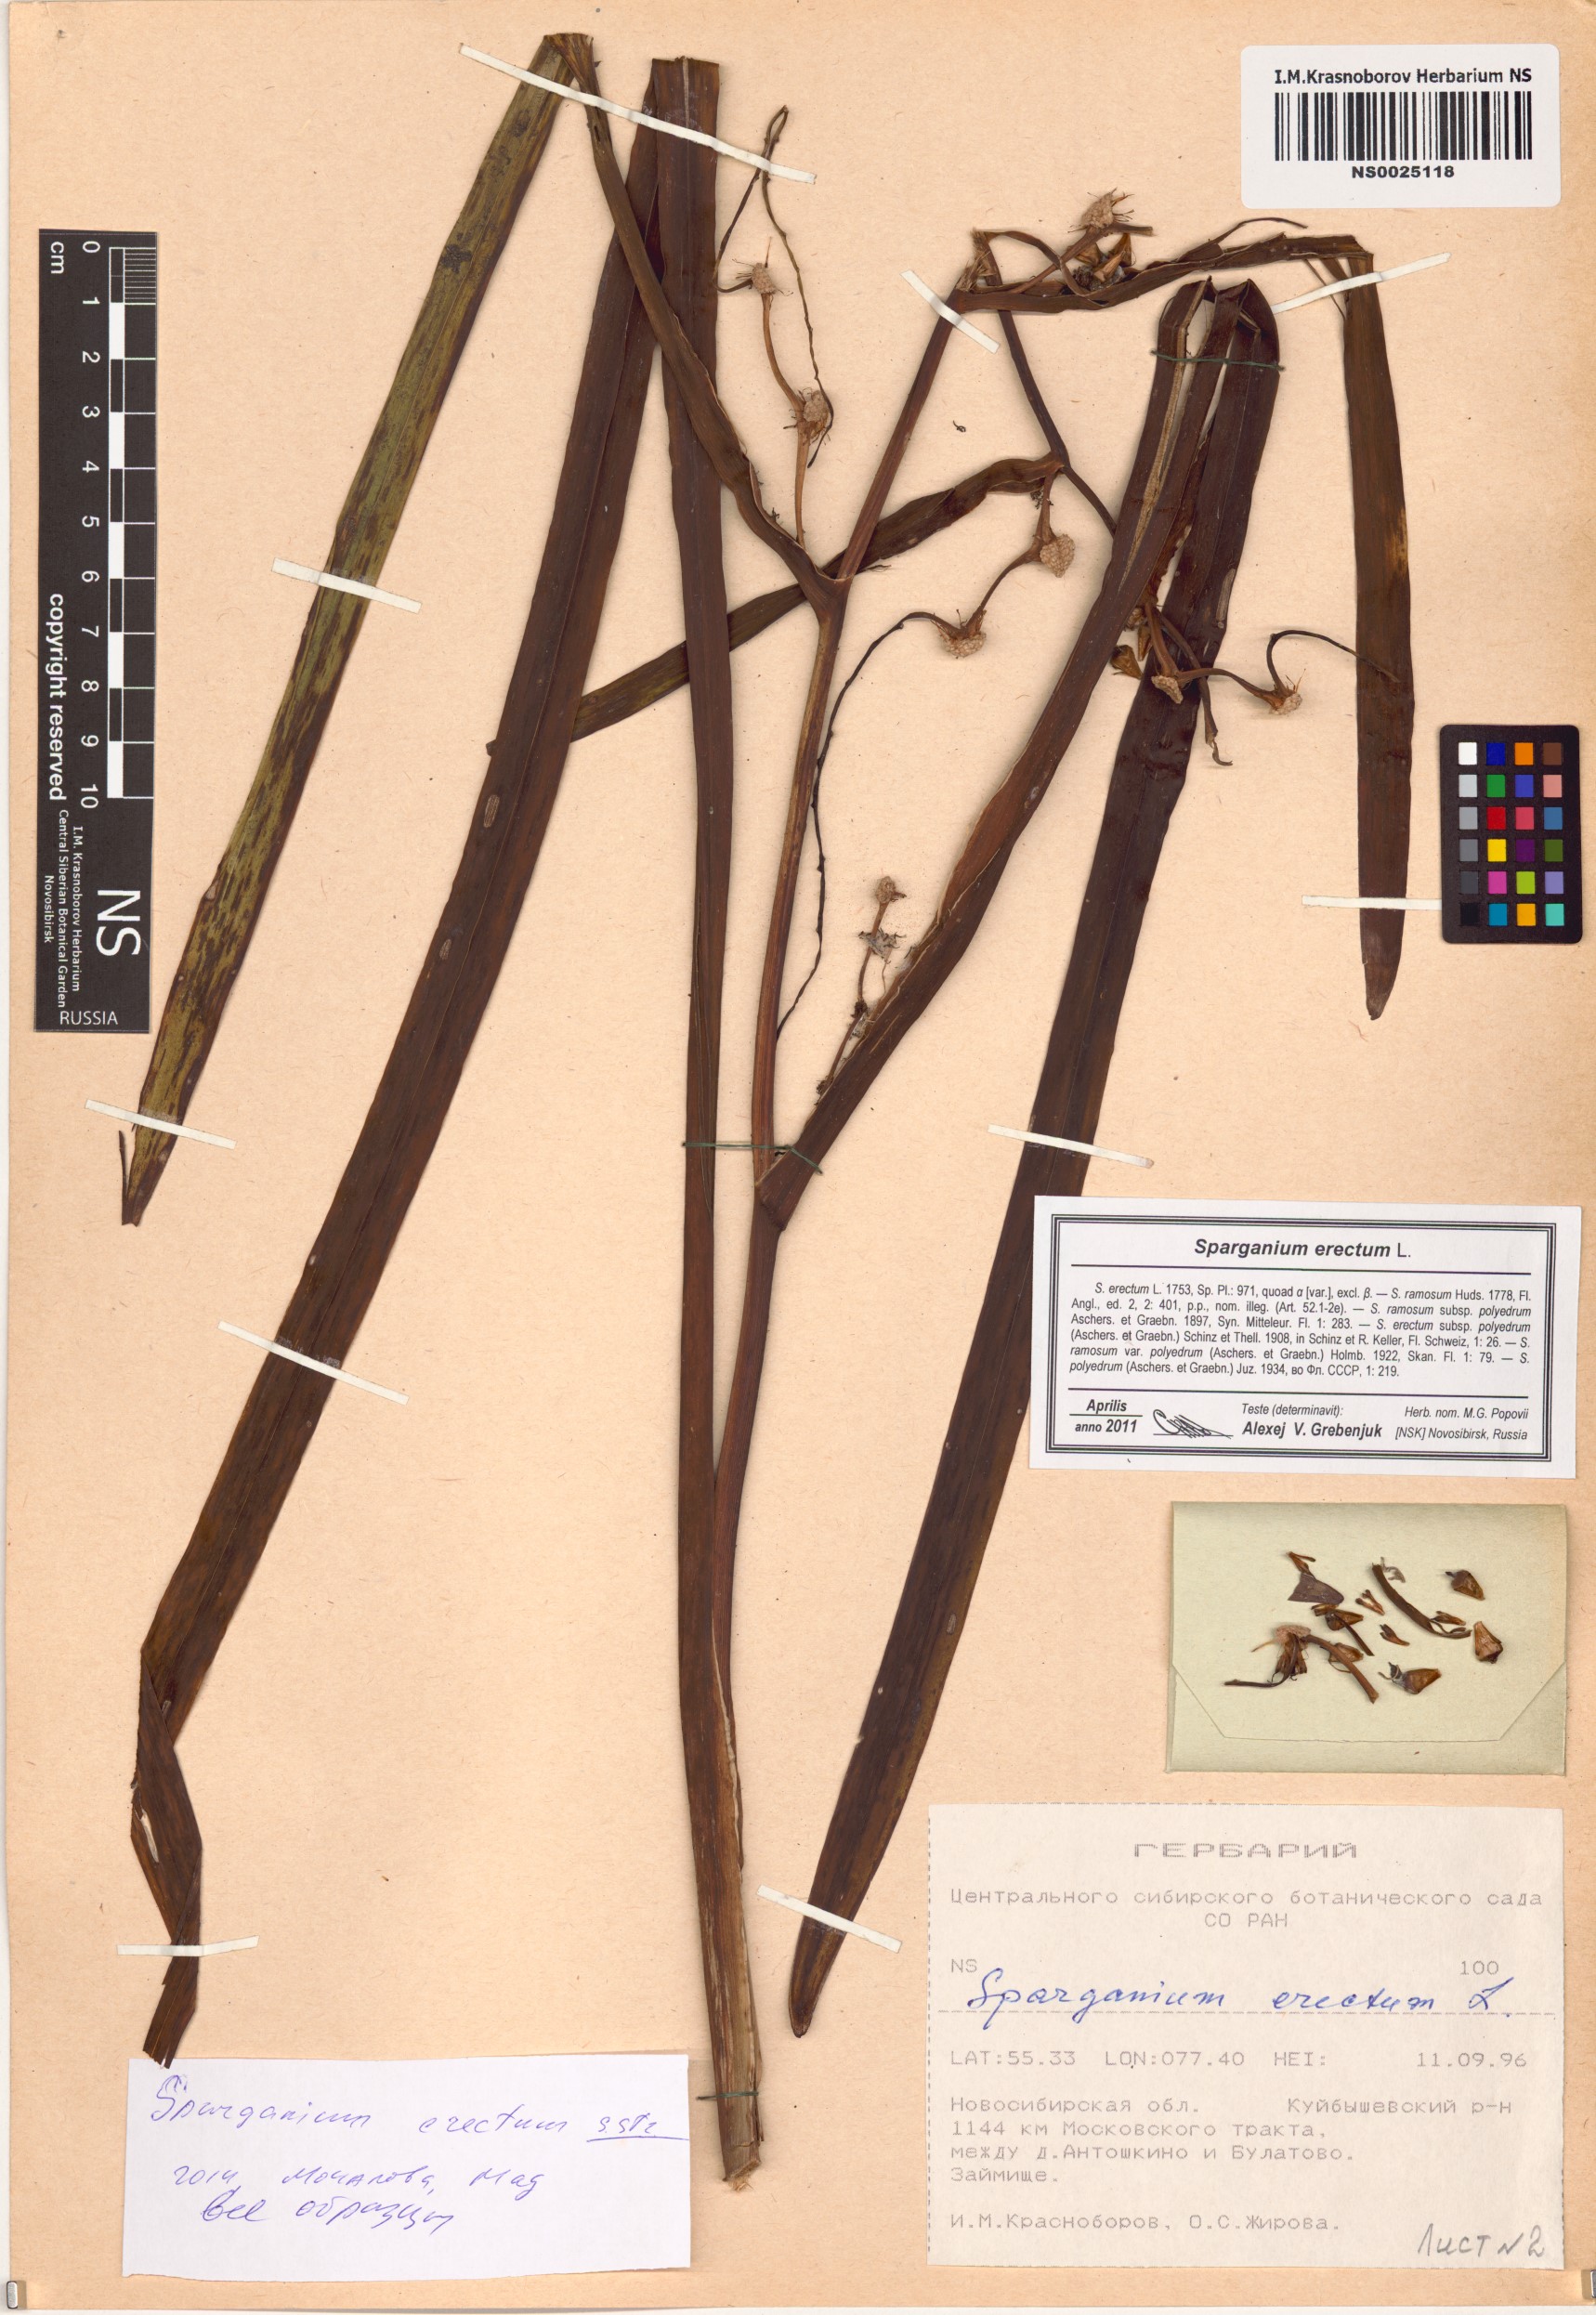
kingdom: Plantae
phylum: Tracheophyta
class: Liliopsida
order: Poales
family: Typhaceae
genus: Sparganium
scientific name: Sparganium erectum
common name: Branched bur-reed
